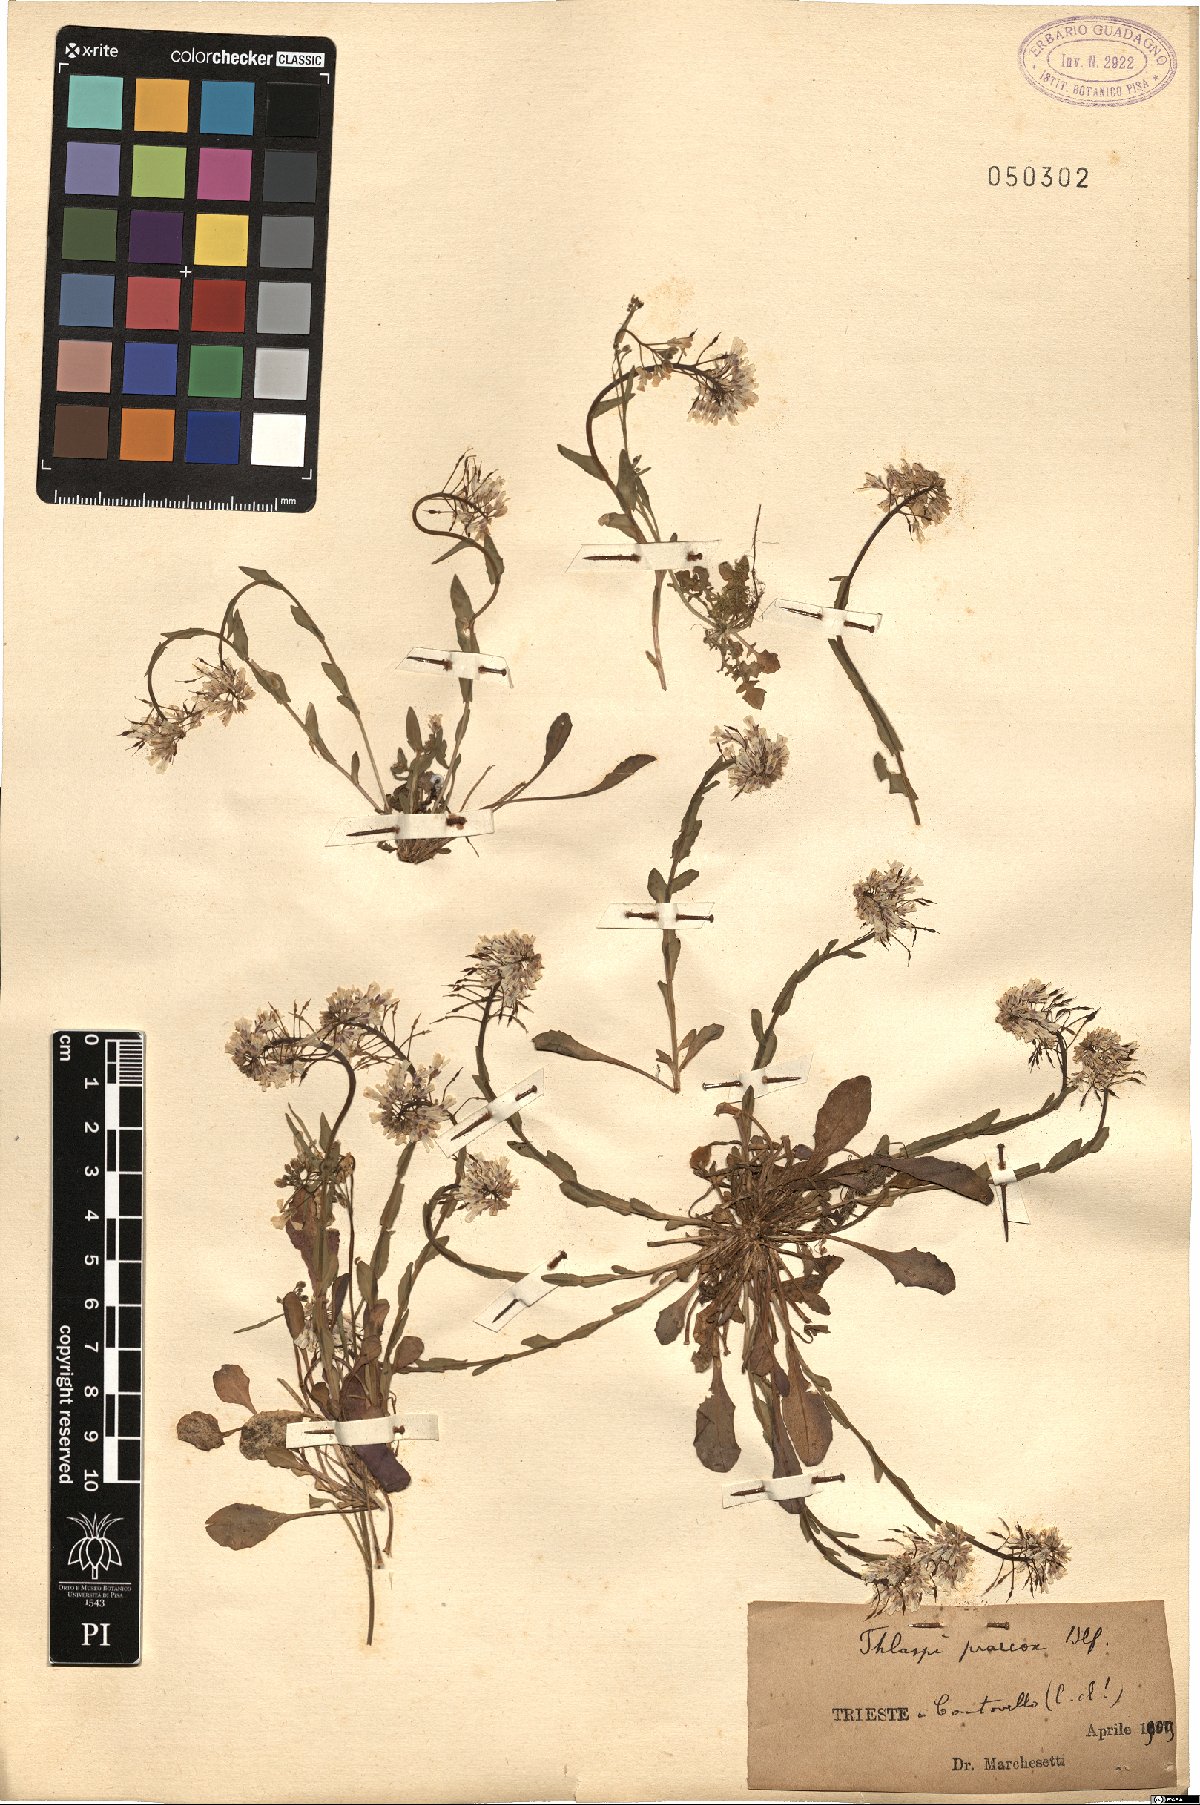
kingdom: Plantae
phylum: Tracheophyta
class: Magnoliopsida
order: Brassicales
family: Brassicaceae
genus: Noccaea
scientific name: Noccaea praecox
